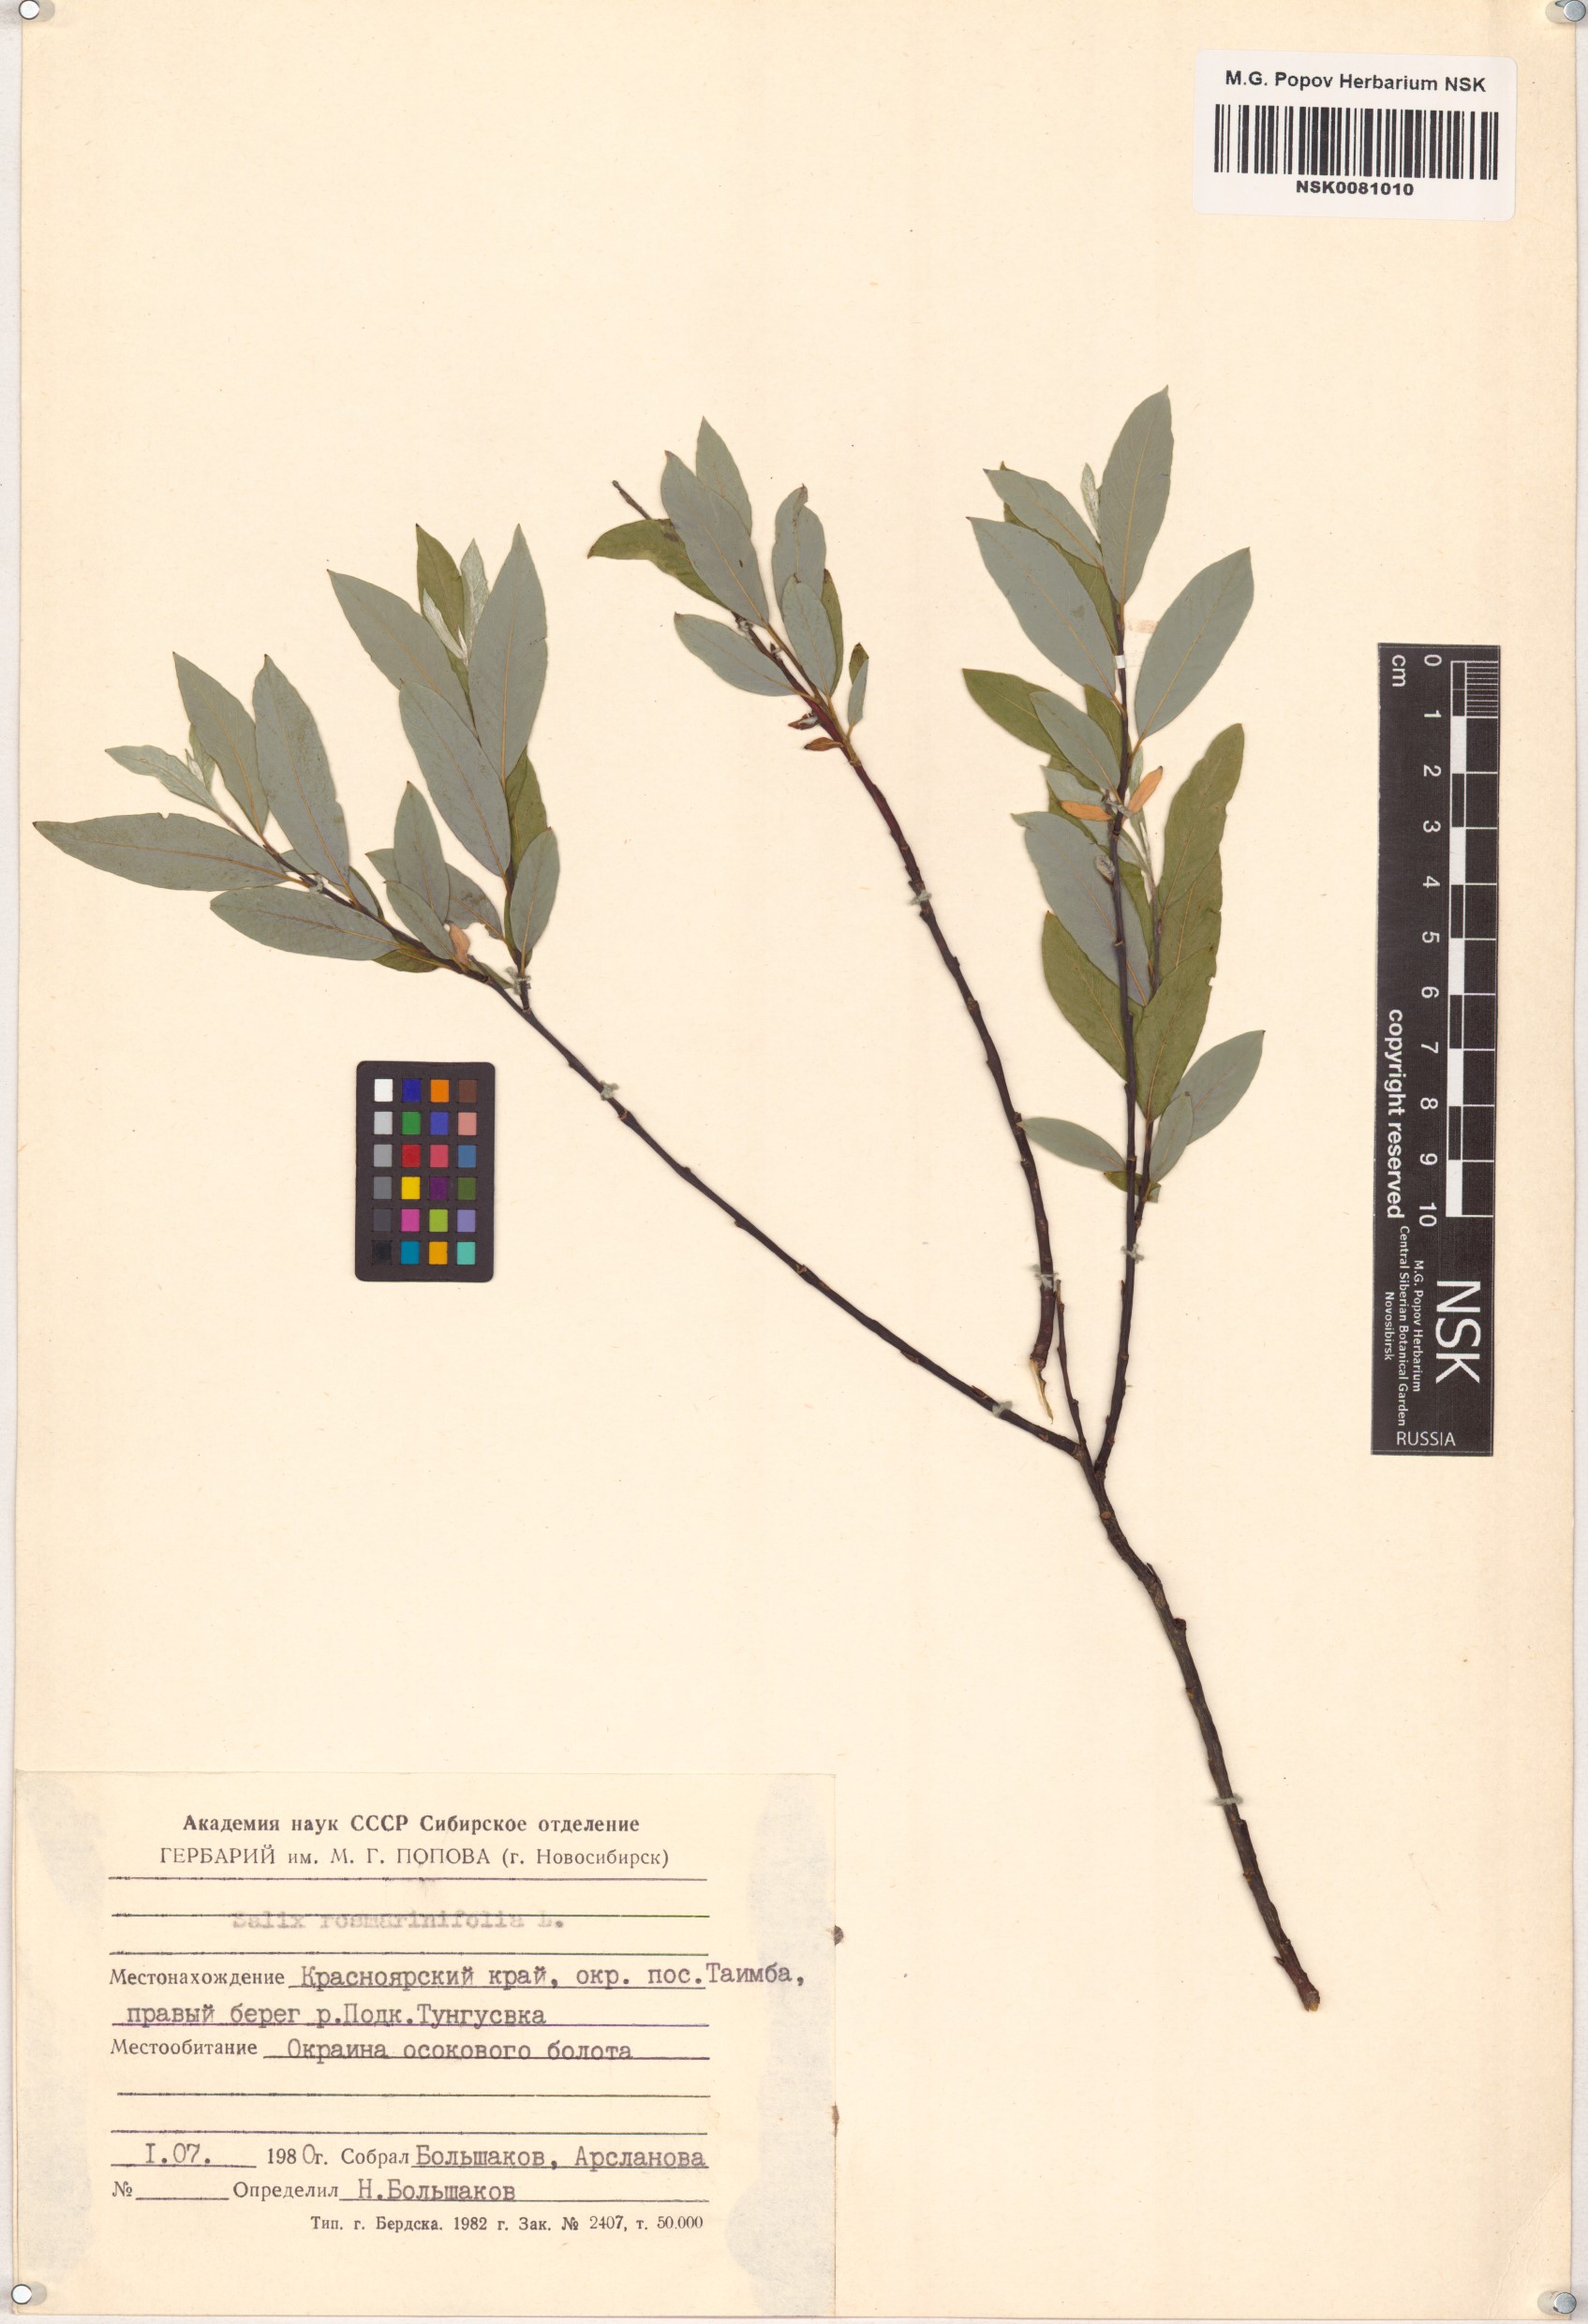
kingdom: Plantae
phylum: Tracheophyta
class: Magnoliopsida
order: Malpighiales
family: Salicaceae
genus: Salix
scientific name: Salix rosmarinifolia
